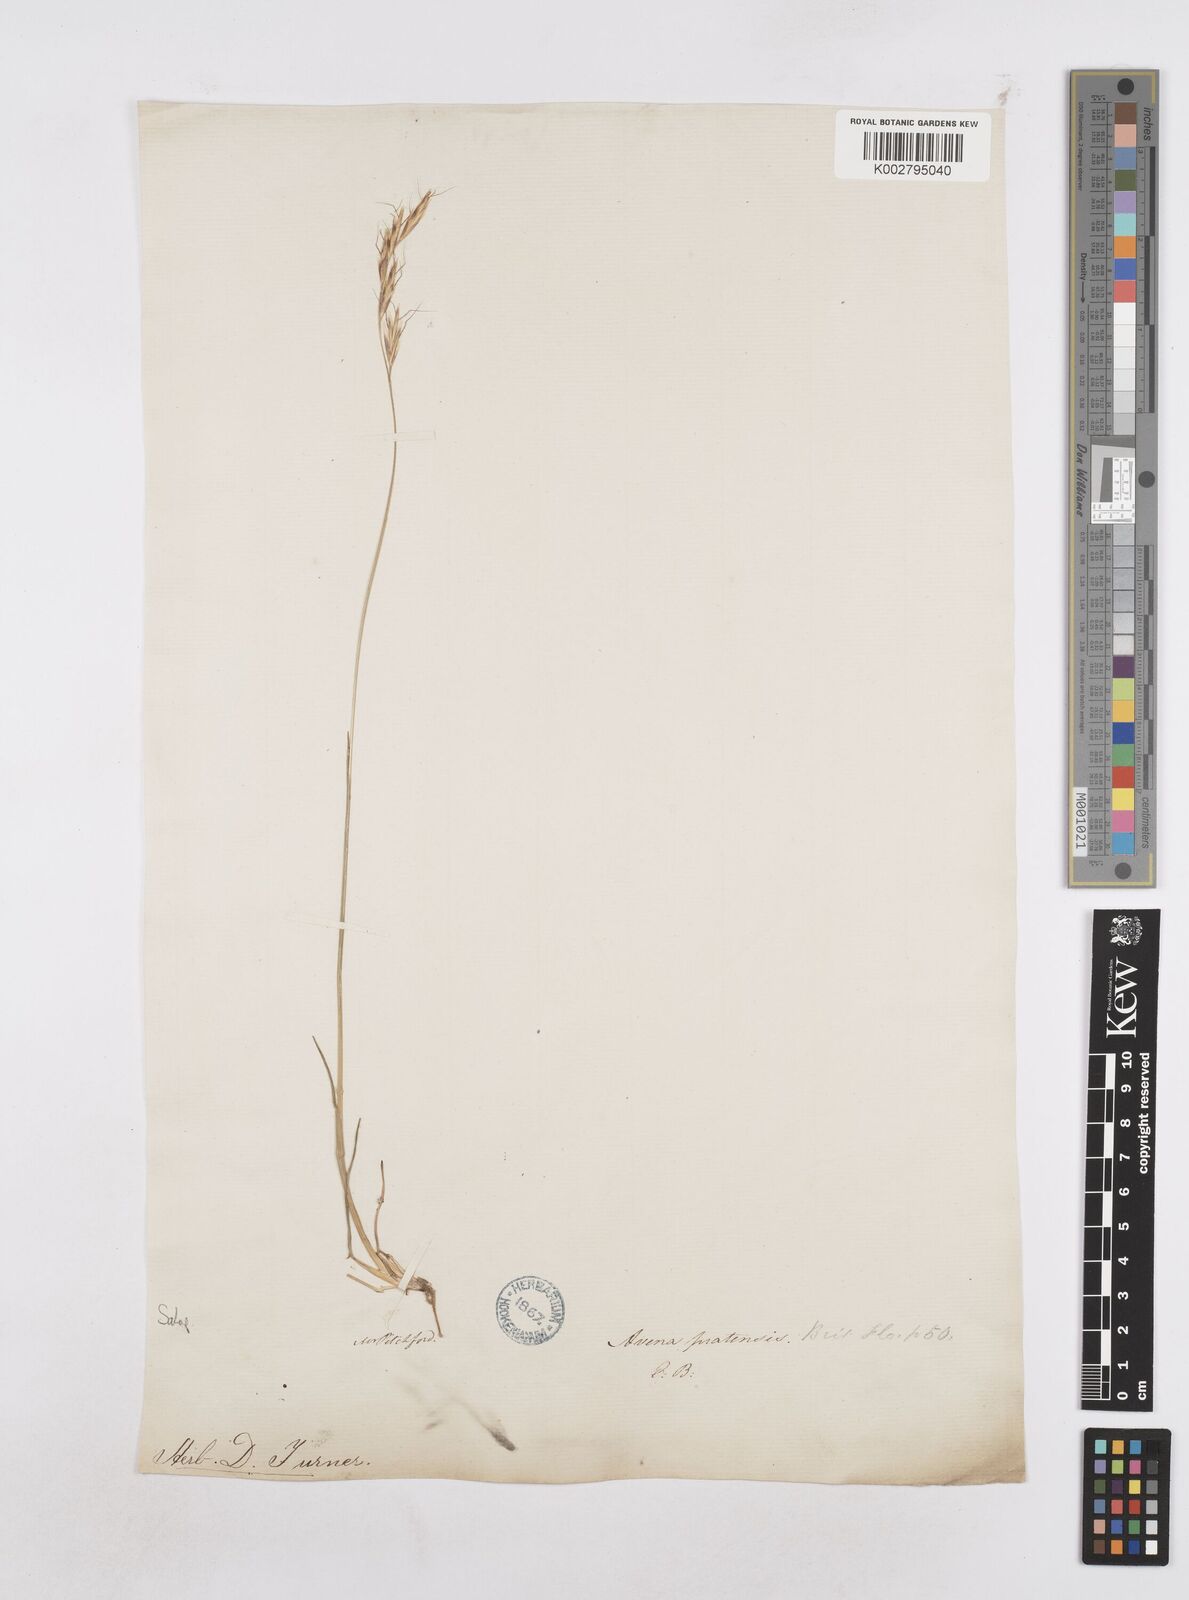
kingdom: Plantae
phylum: Tracheophyta
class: Liliopsida
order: Poales
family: Poaceae
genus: Helictochloa
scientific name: Helictochloa pratensis
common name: Meadow oat grass
